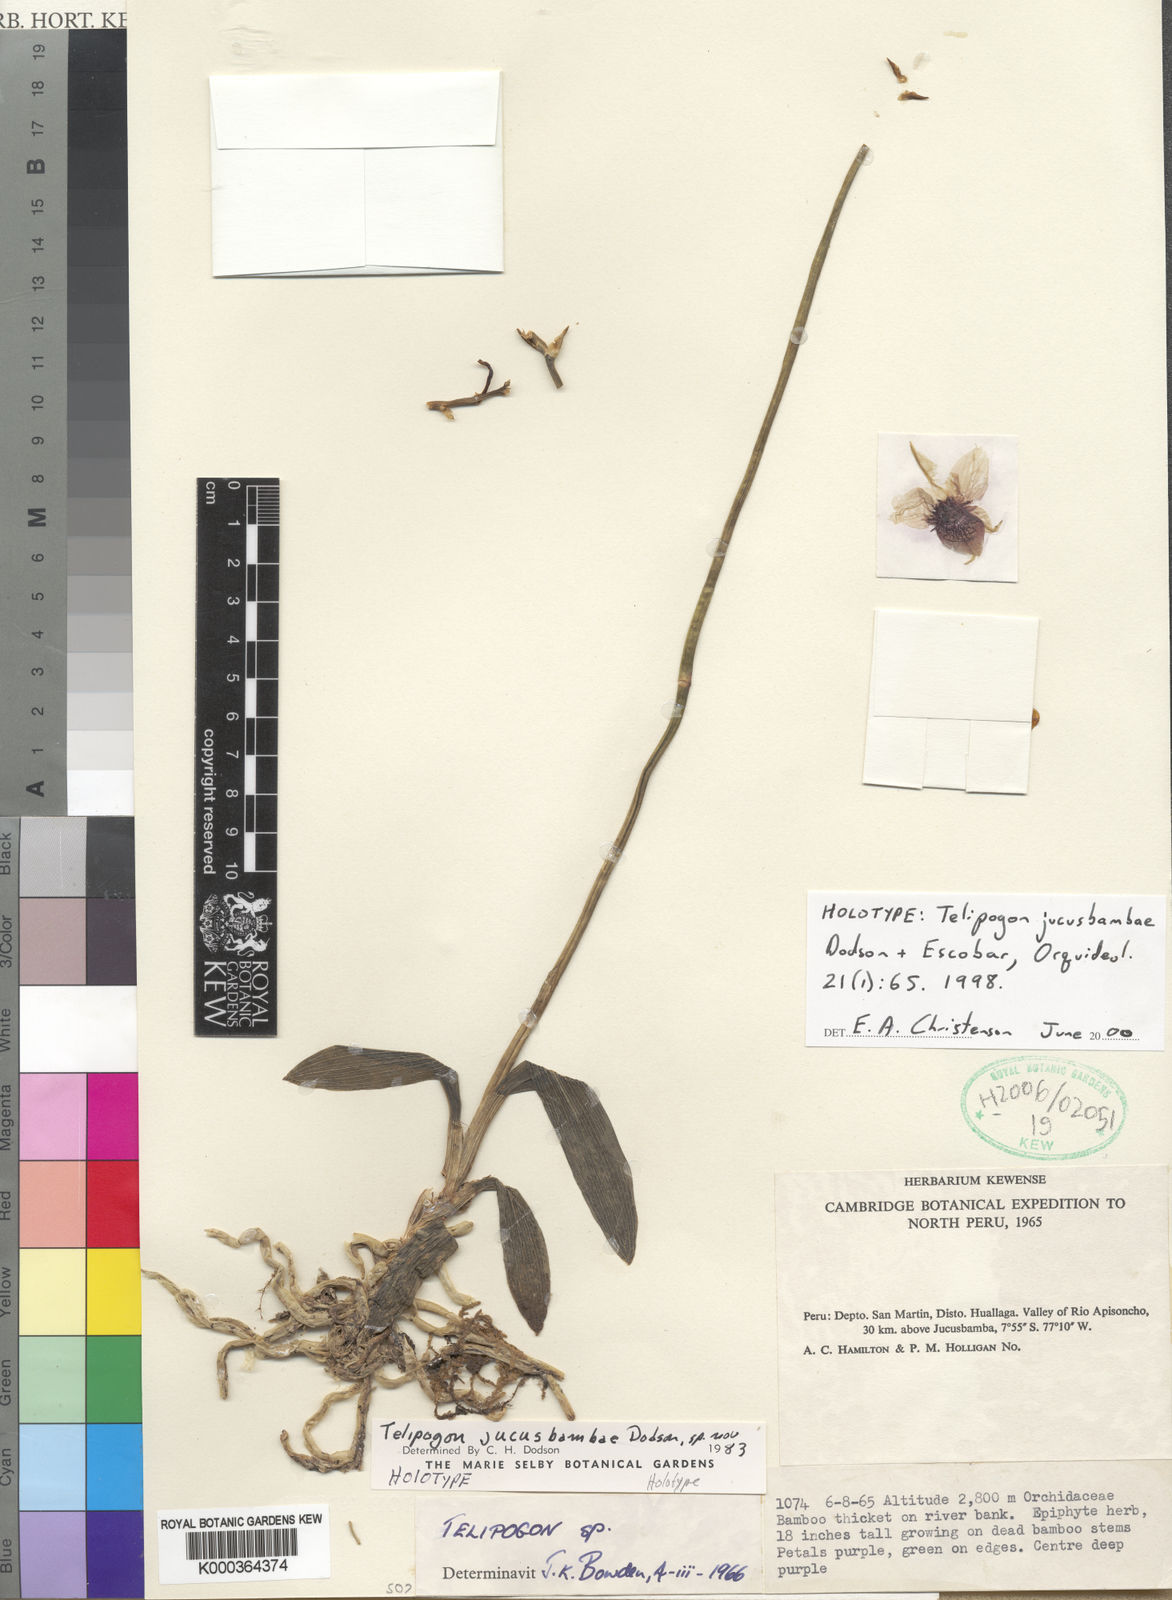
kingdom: Plantae
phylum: Tracheophyta
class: Liliopsida
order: Asparagales
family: Orchidaceae
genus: Telipogon
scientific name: Telipogon jucusbambae
